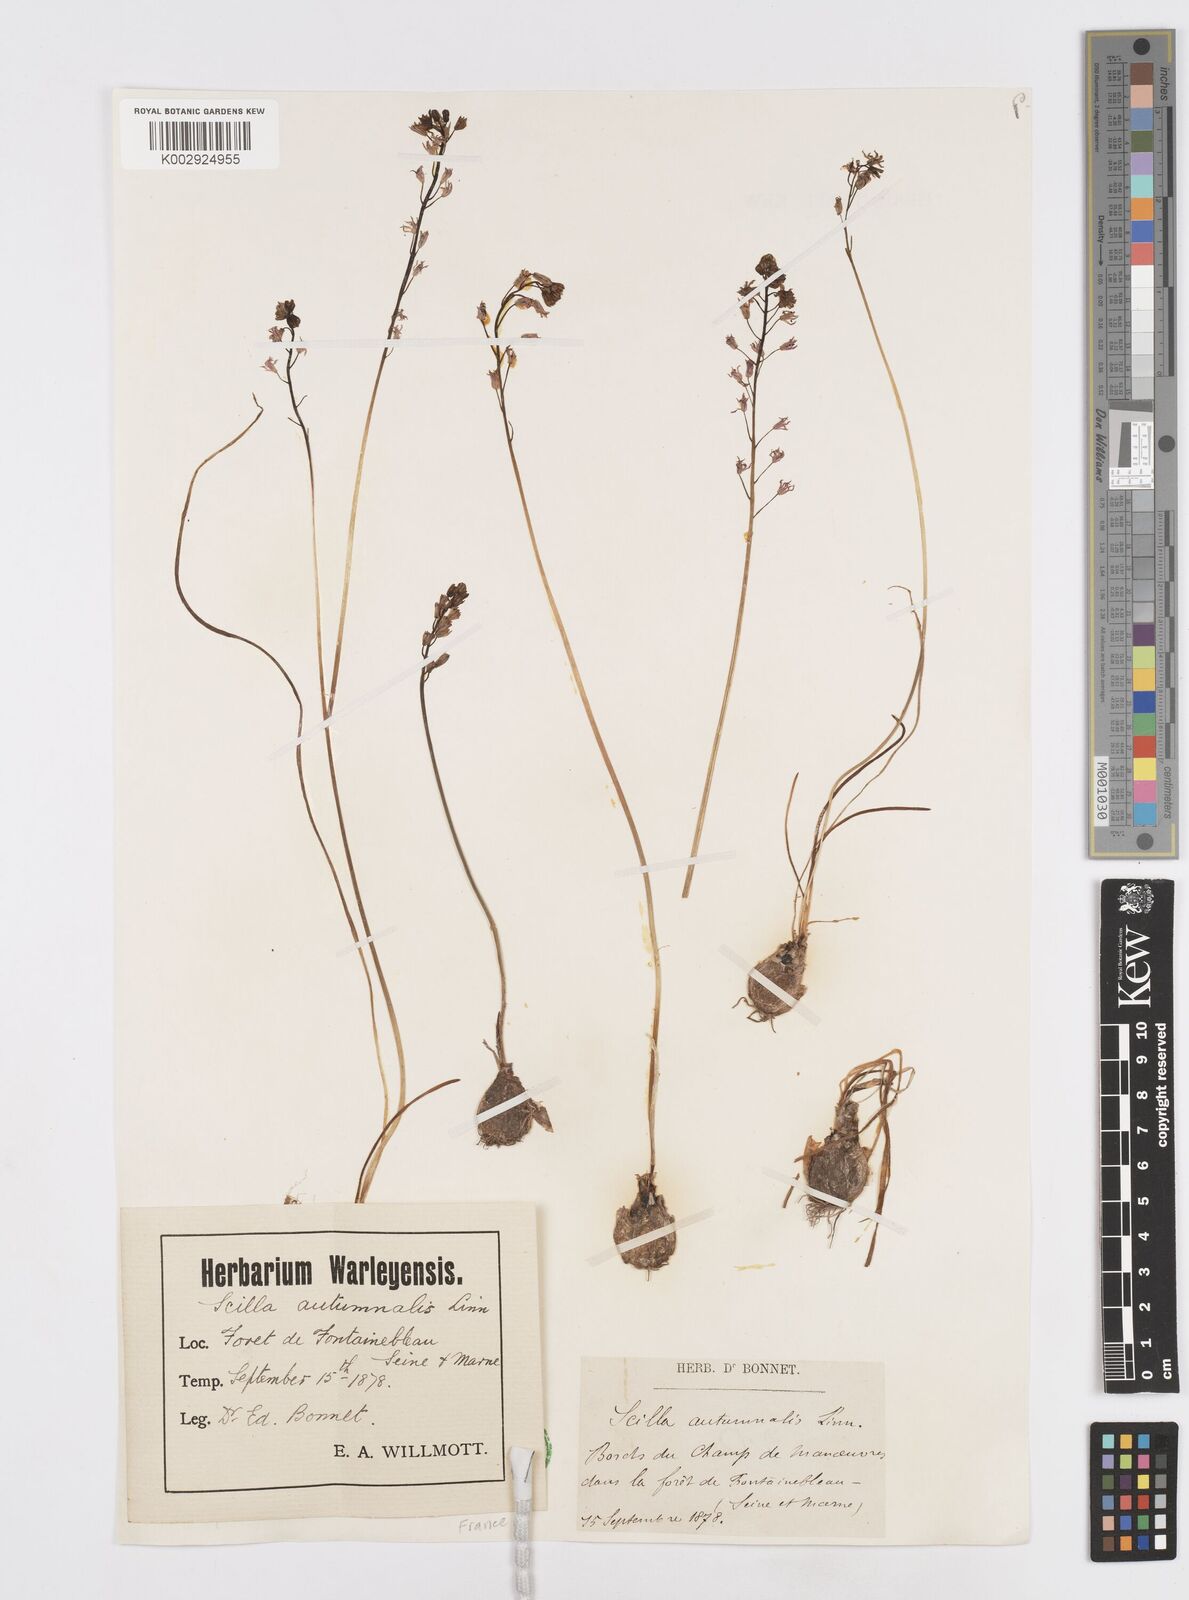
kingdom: Plantae
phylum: Tracheophyta
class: Liliopsida
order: Asparagales
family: Asparagaceae
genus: Prospero
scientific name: Prospero autumnale
